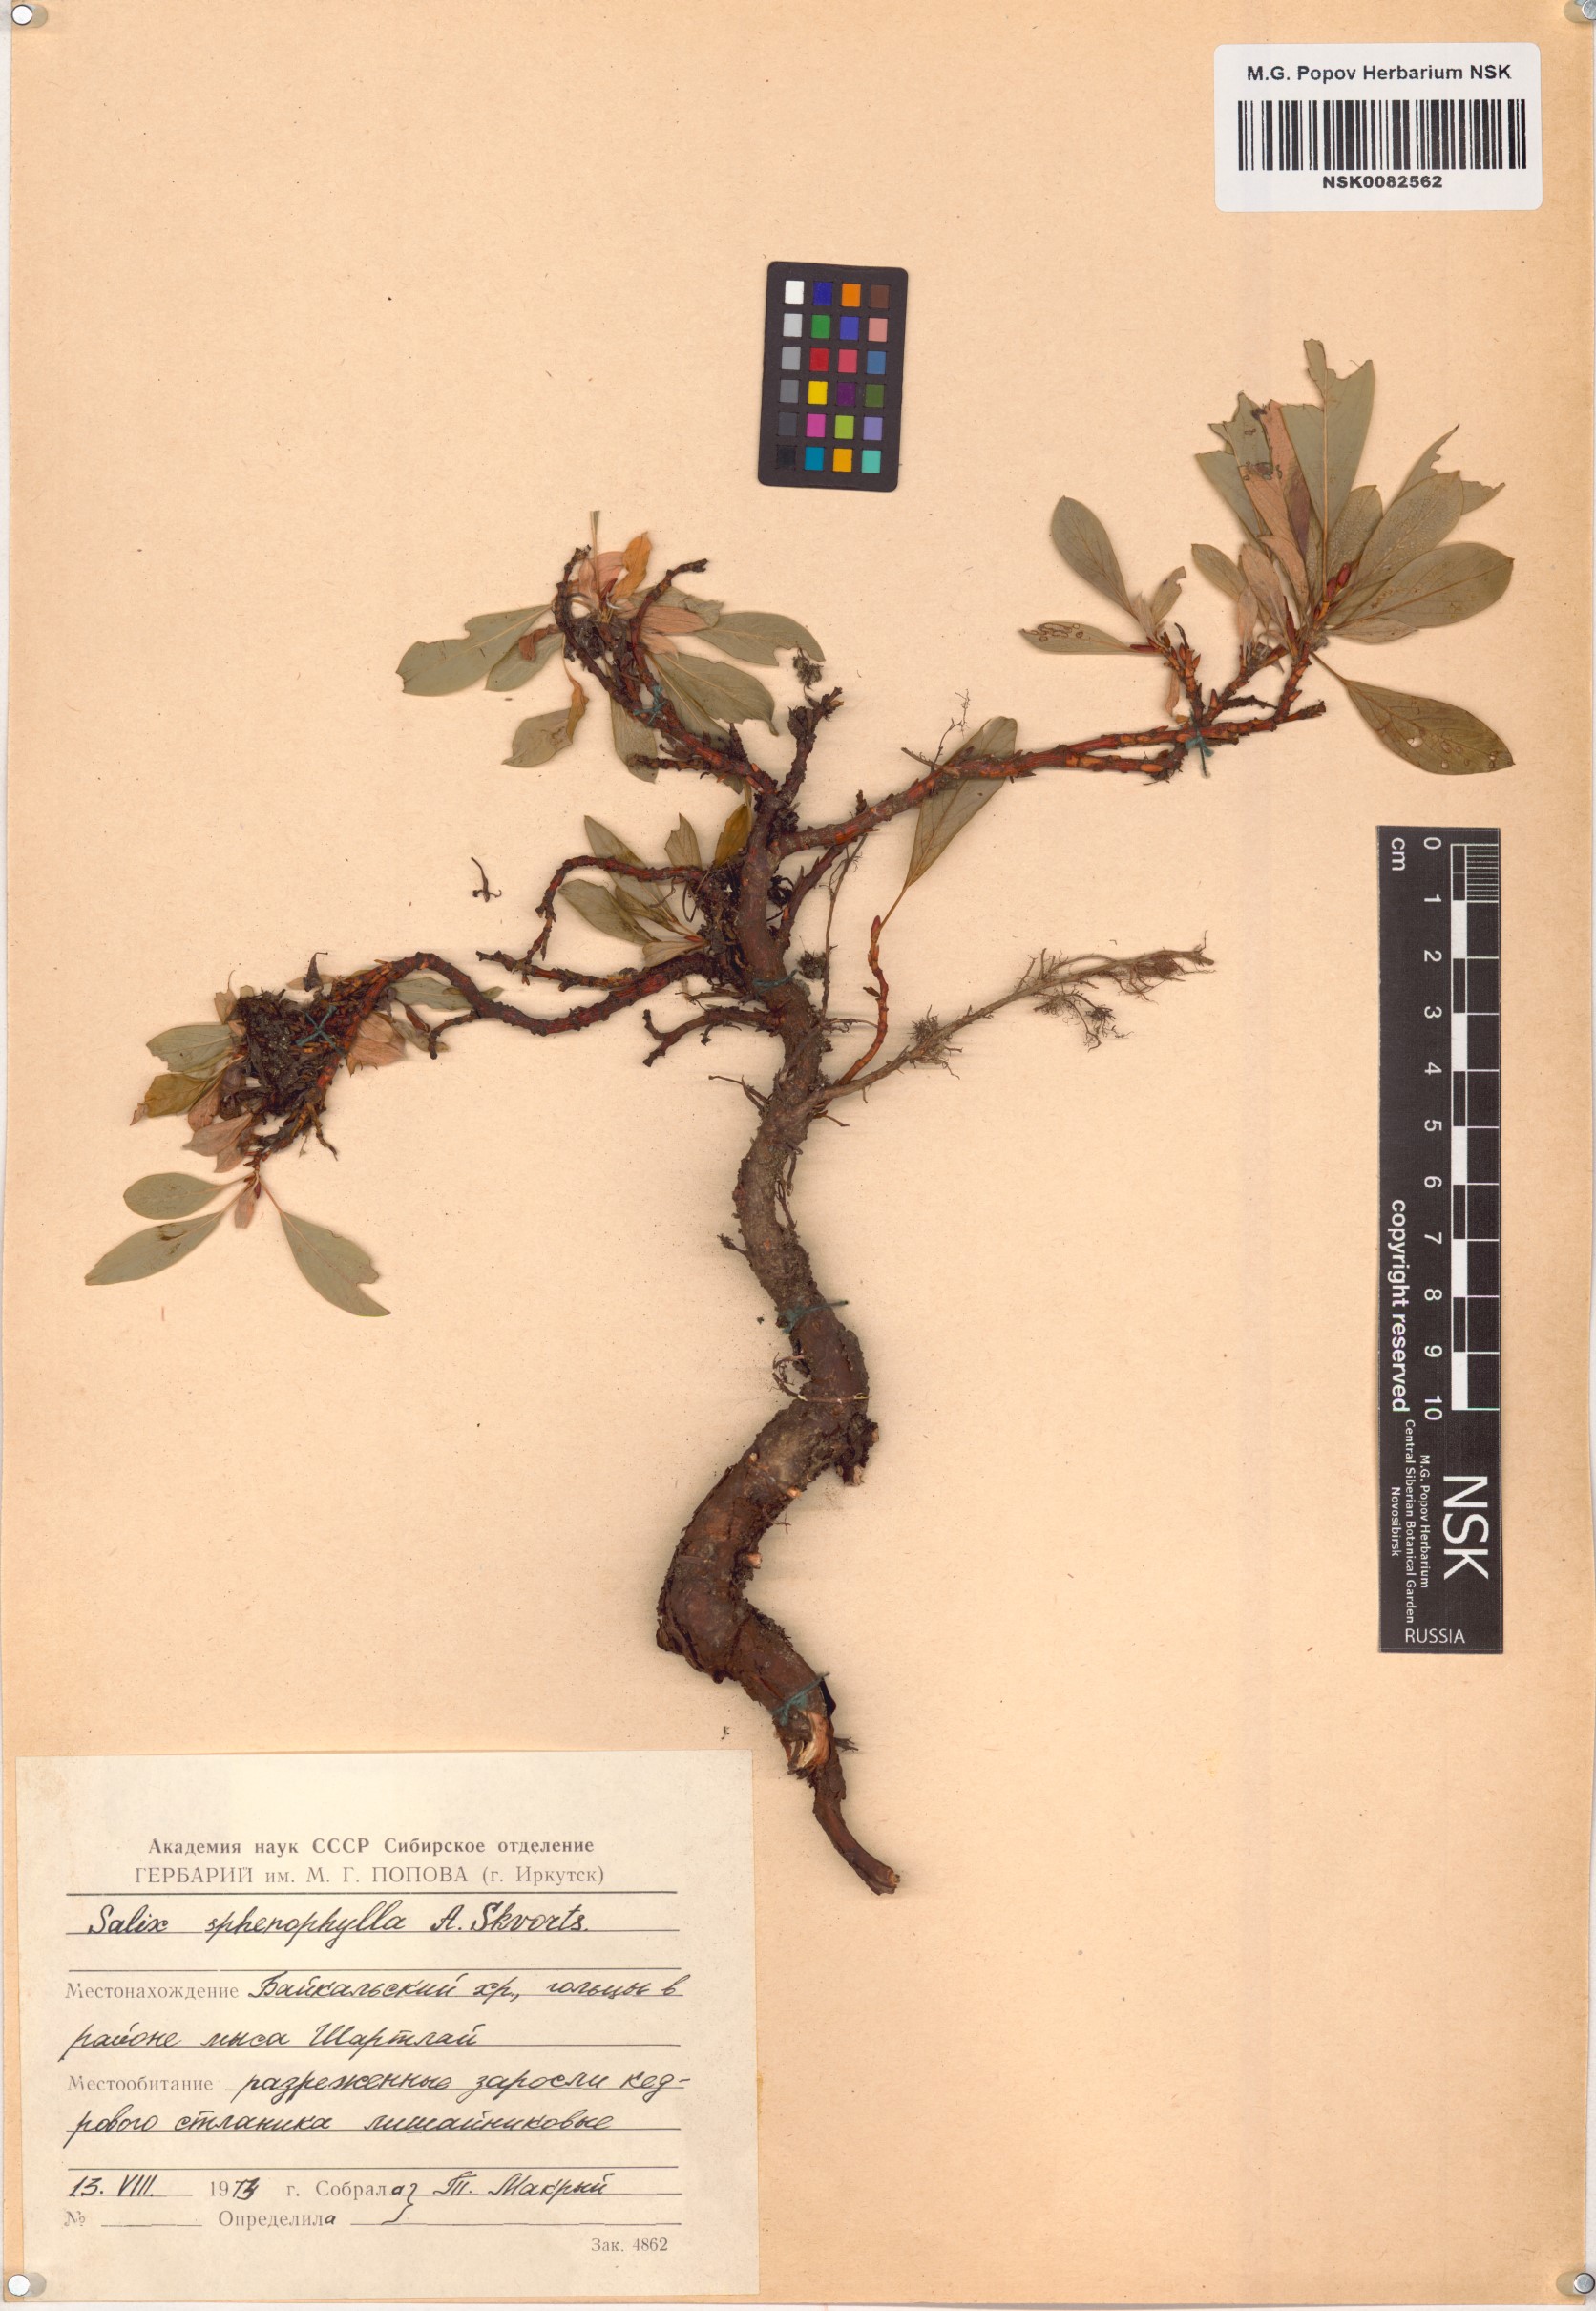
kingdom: Plantae
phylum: Tracheophyta
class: Magnoliopsida
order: Malpighiales
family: Salicaceae
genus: Salix
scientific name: Salix sphenophylla
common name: Wedge-leaved willow
